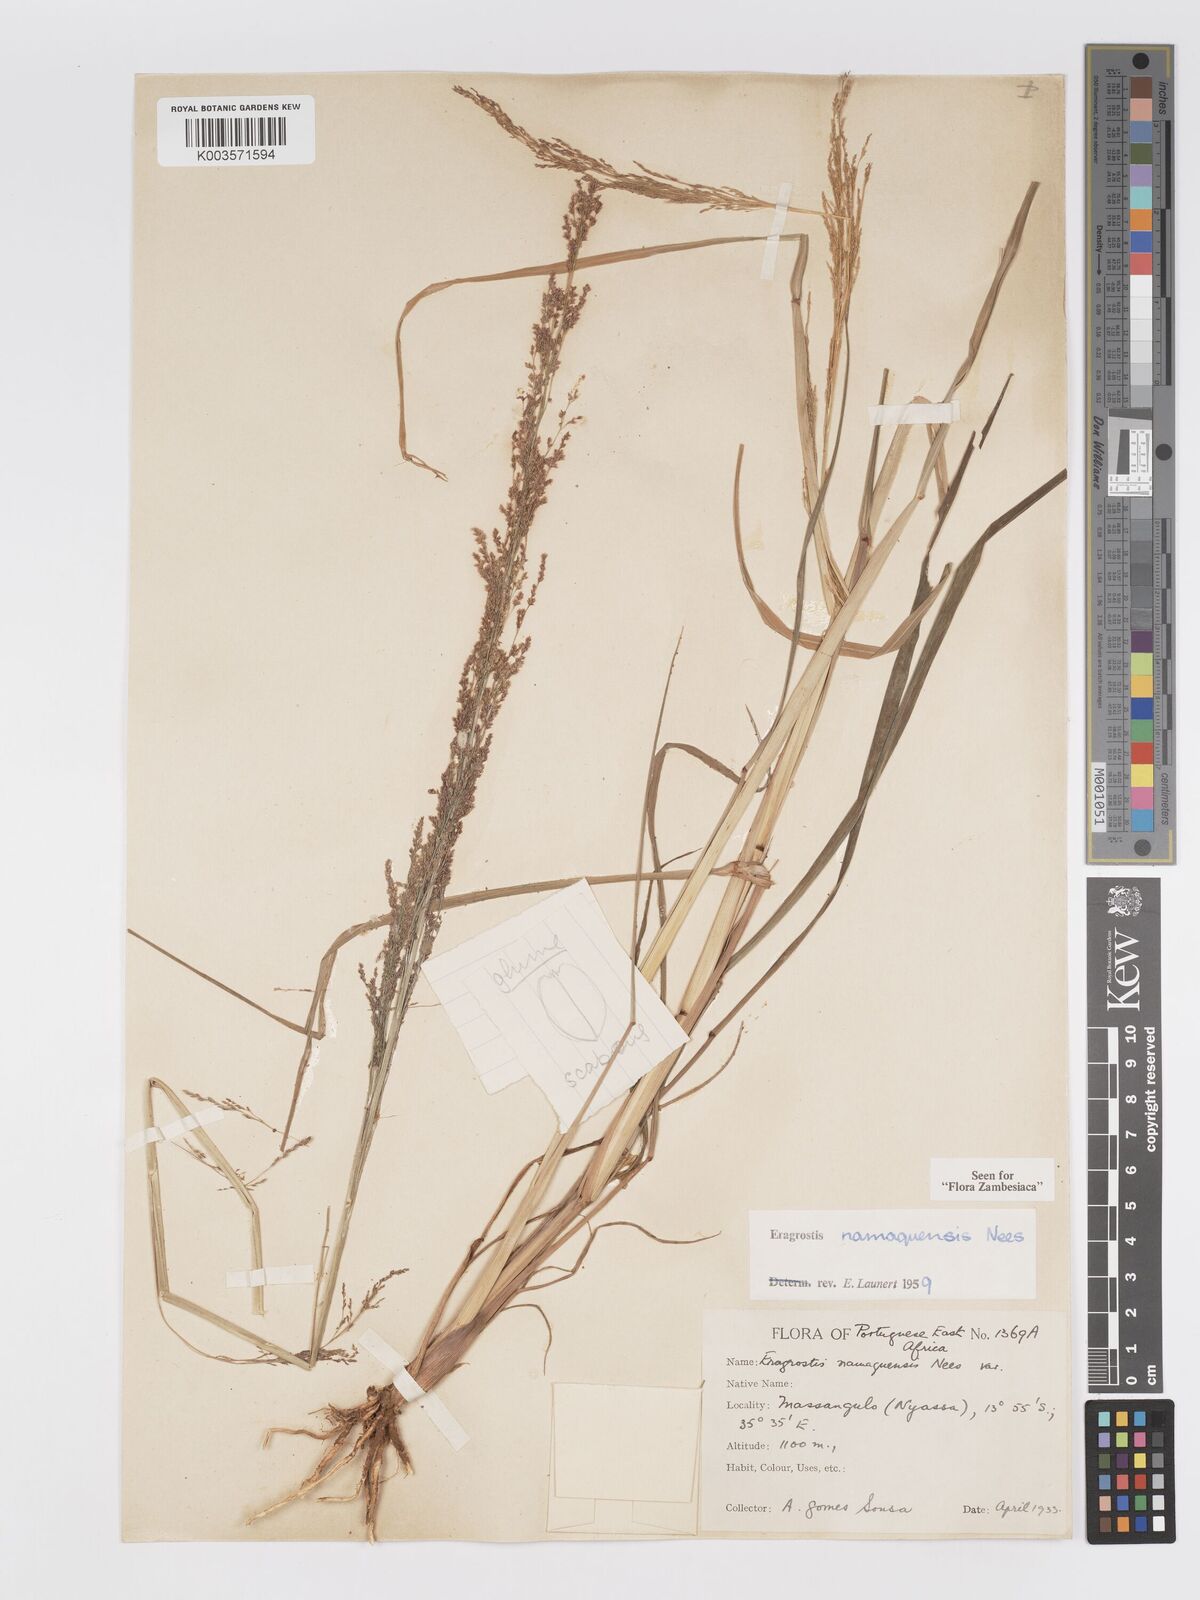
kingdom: Plantae
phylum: Tracheophyta
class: Liliopsida
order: Poales
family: Poaceae
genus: Eragrostis
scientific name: Eragrostis japonica
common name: Pond lovegrass
